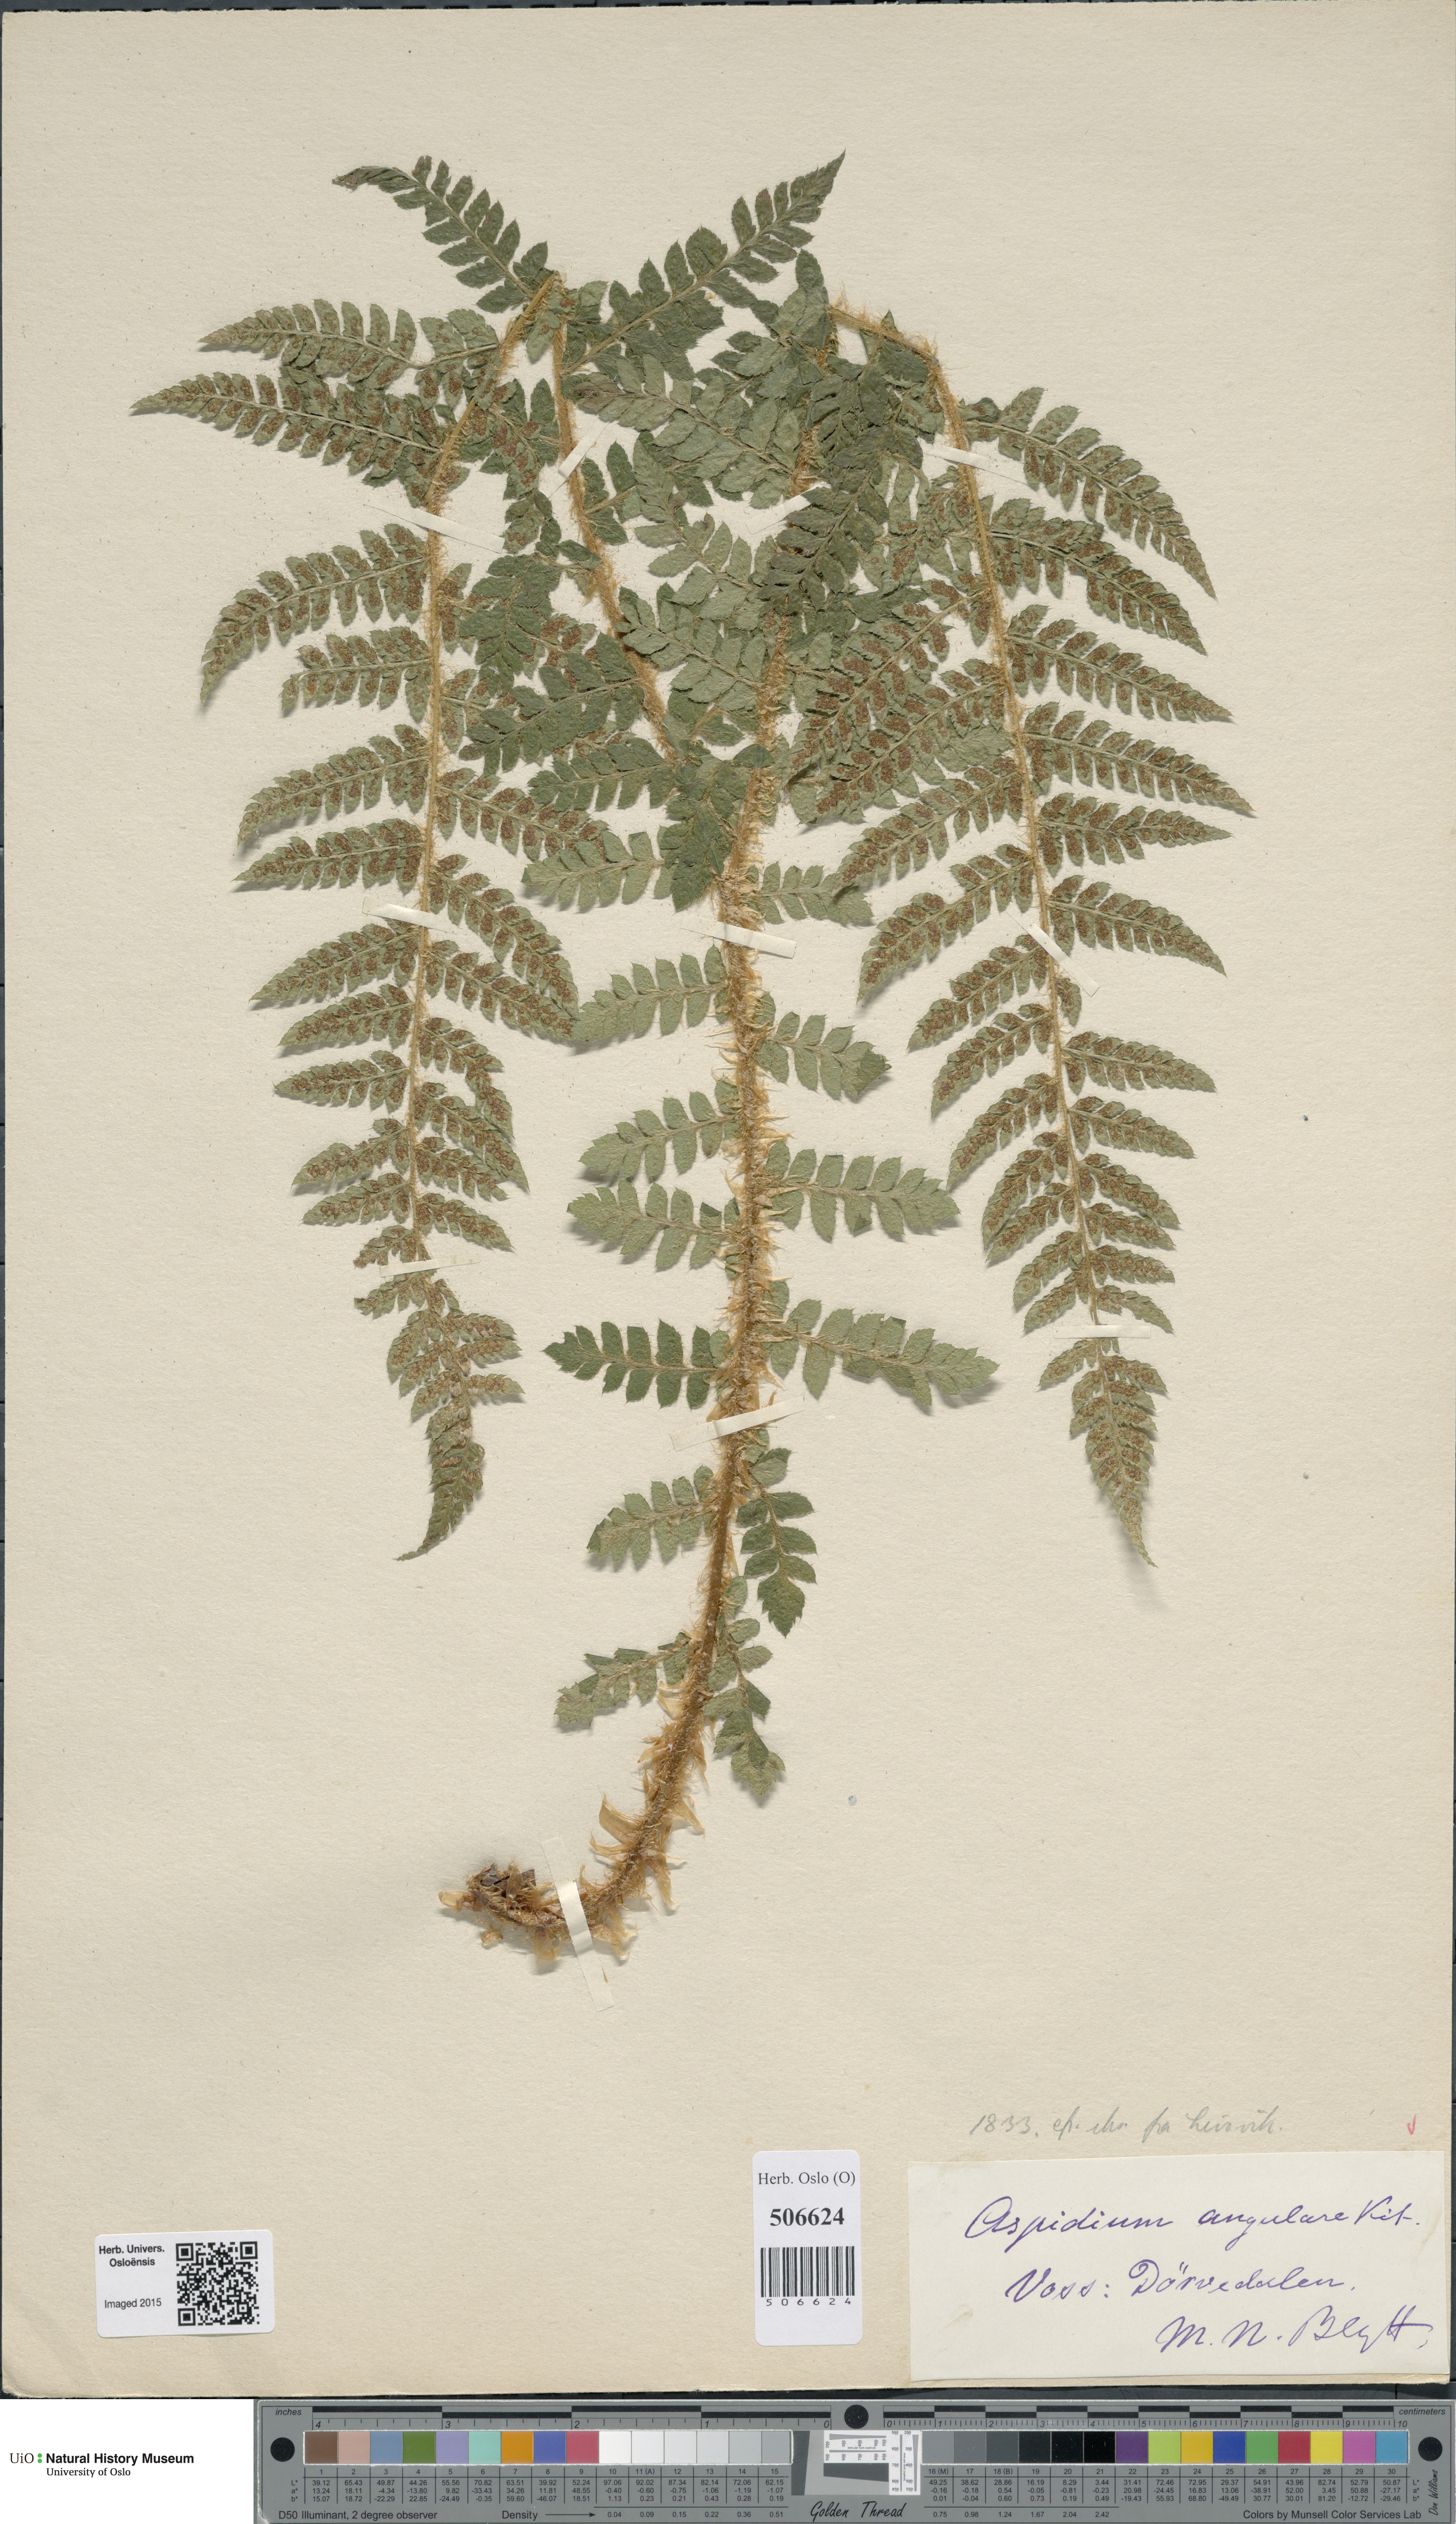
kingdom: Plantae
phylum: Tracheophyta
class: Polypodiopsida
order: Polypodiales
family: Dryopteridaceae
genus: Polystichum
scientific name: Polystichum braunii
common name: Braun's holly fern
